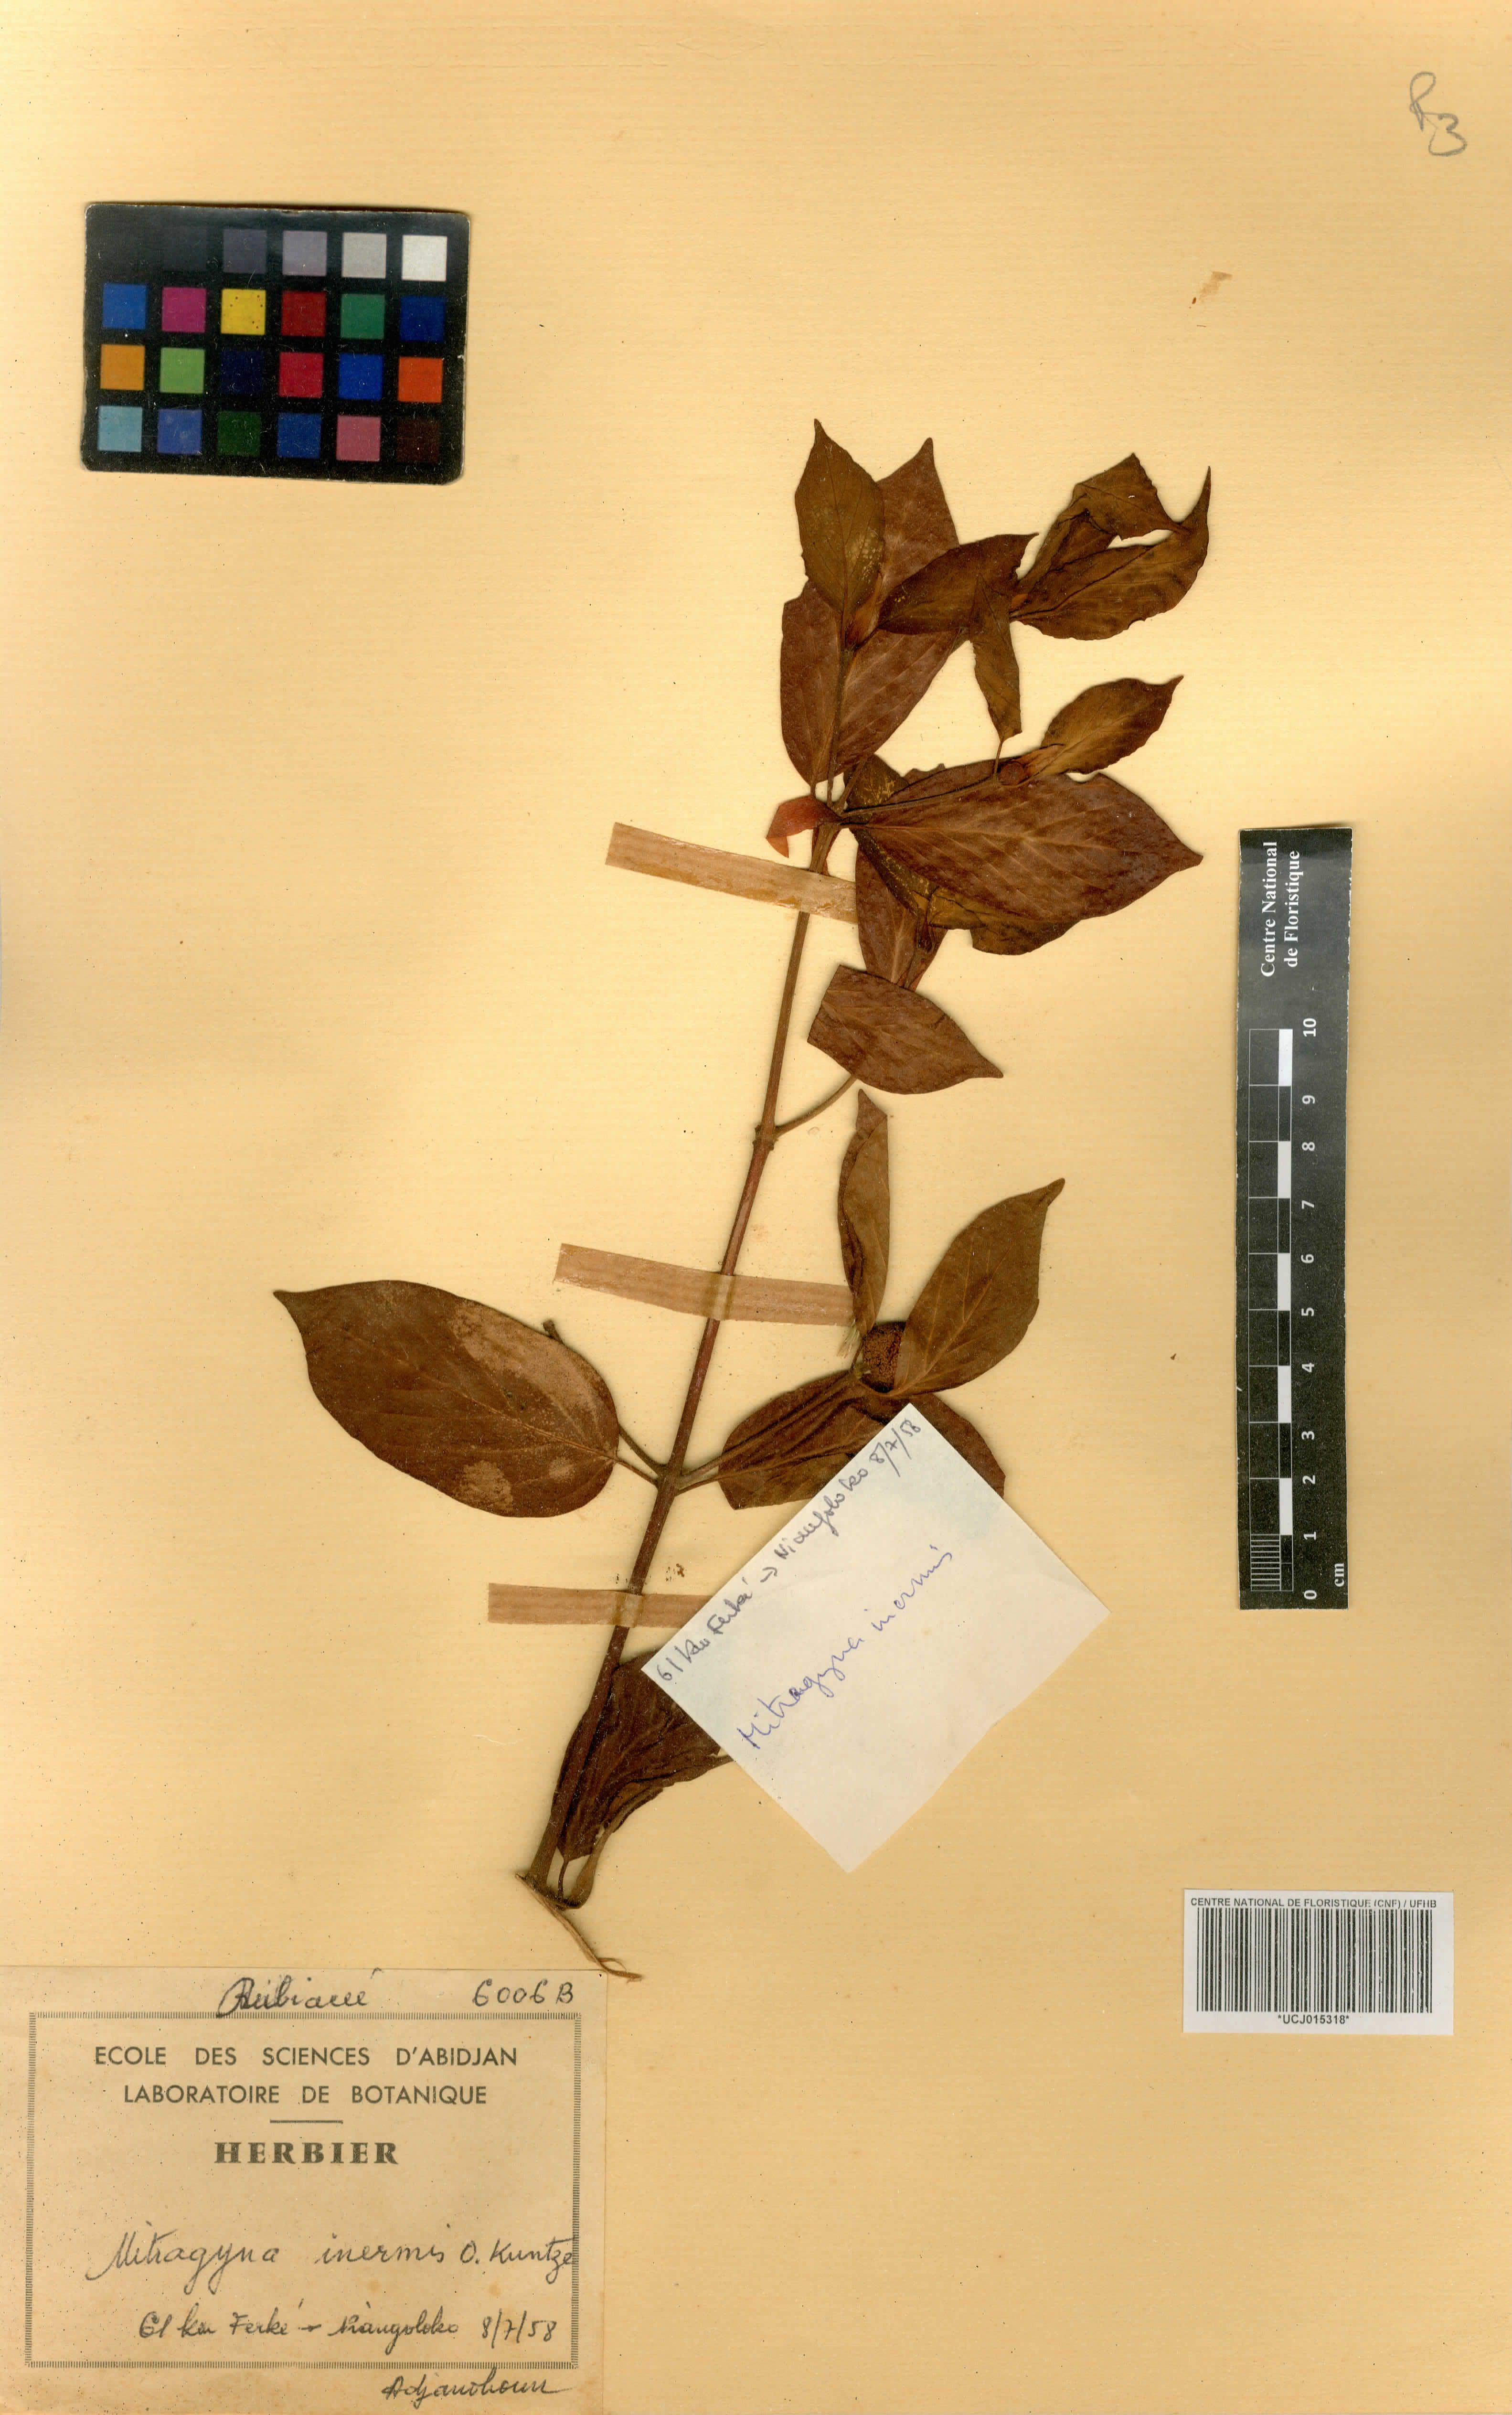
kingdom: Plantae
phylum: Tracheophyta
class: Magnoliopsida
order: Gentianales
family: Rubiaceae
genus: Mitragyna
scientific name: Mitragyna inermis
